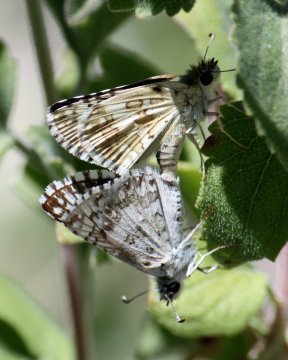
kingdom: Animalia
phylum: Arthropoda
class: Insecta
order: Lepidoptera
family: Hesperiidae
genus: Pyrgus
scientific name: Pyrgus communis
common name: Common Checkered-Skipper
